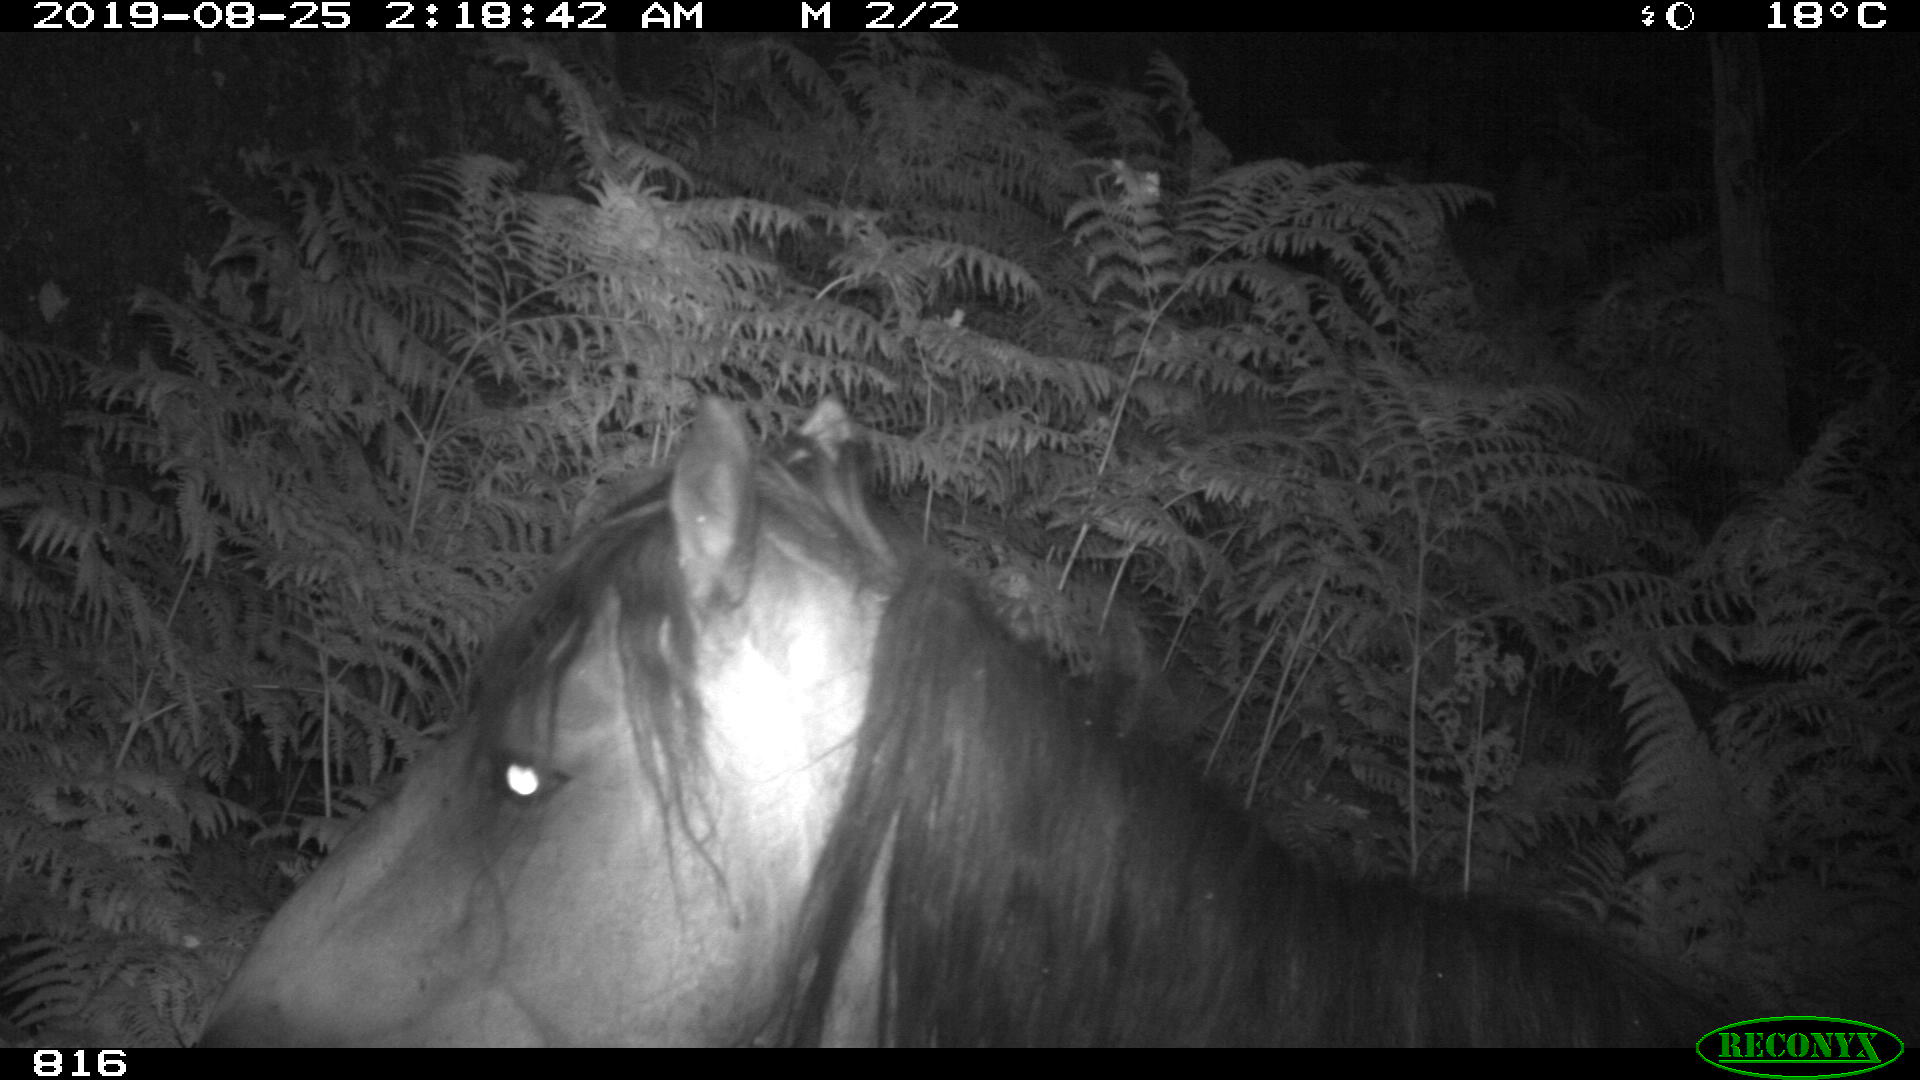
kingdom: Animalia
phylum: Chordata
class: Mammalia
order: Perissodactyla
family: Equidae
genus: Equus
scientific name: Equus caballus
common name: Horse
